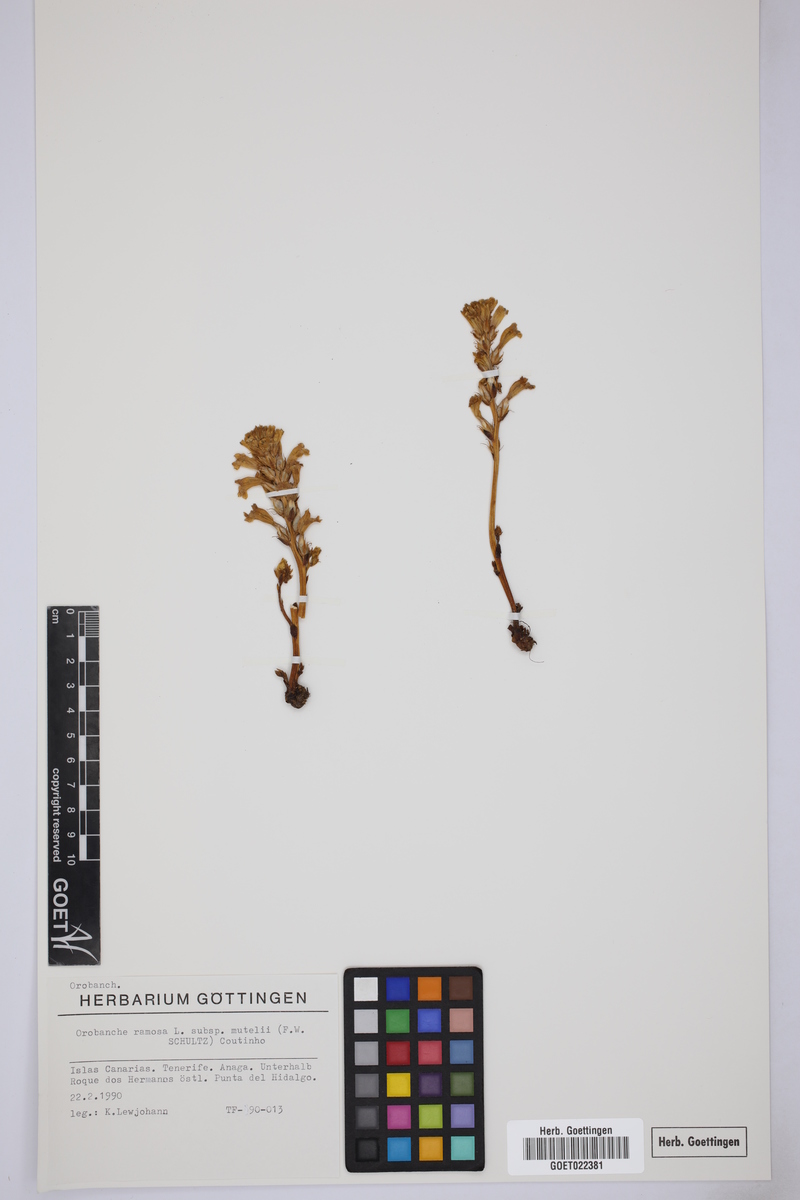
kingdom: Plantae
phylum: Tracheophyta
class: Magnoliopsida
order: Lamiales
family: Orobanchaceae
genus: Phelipanche
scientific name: Phelipanche mutelii
